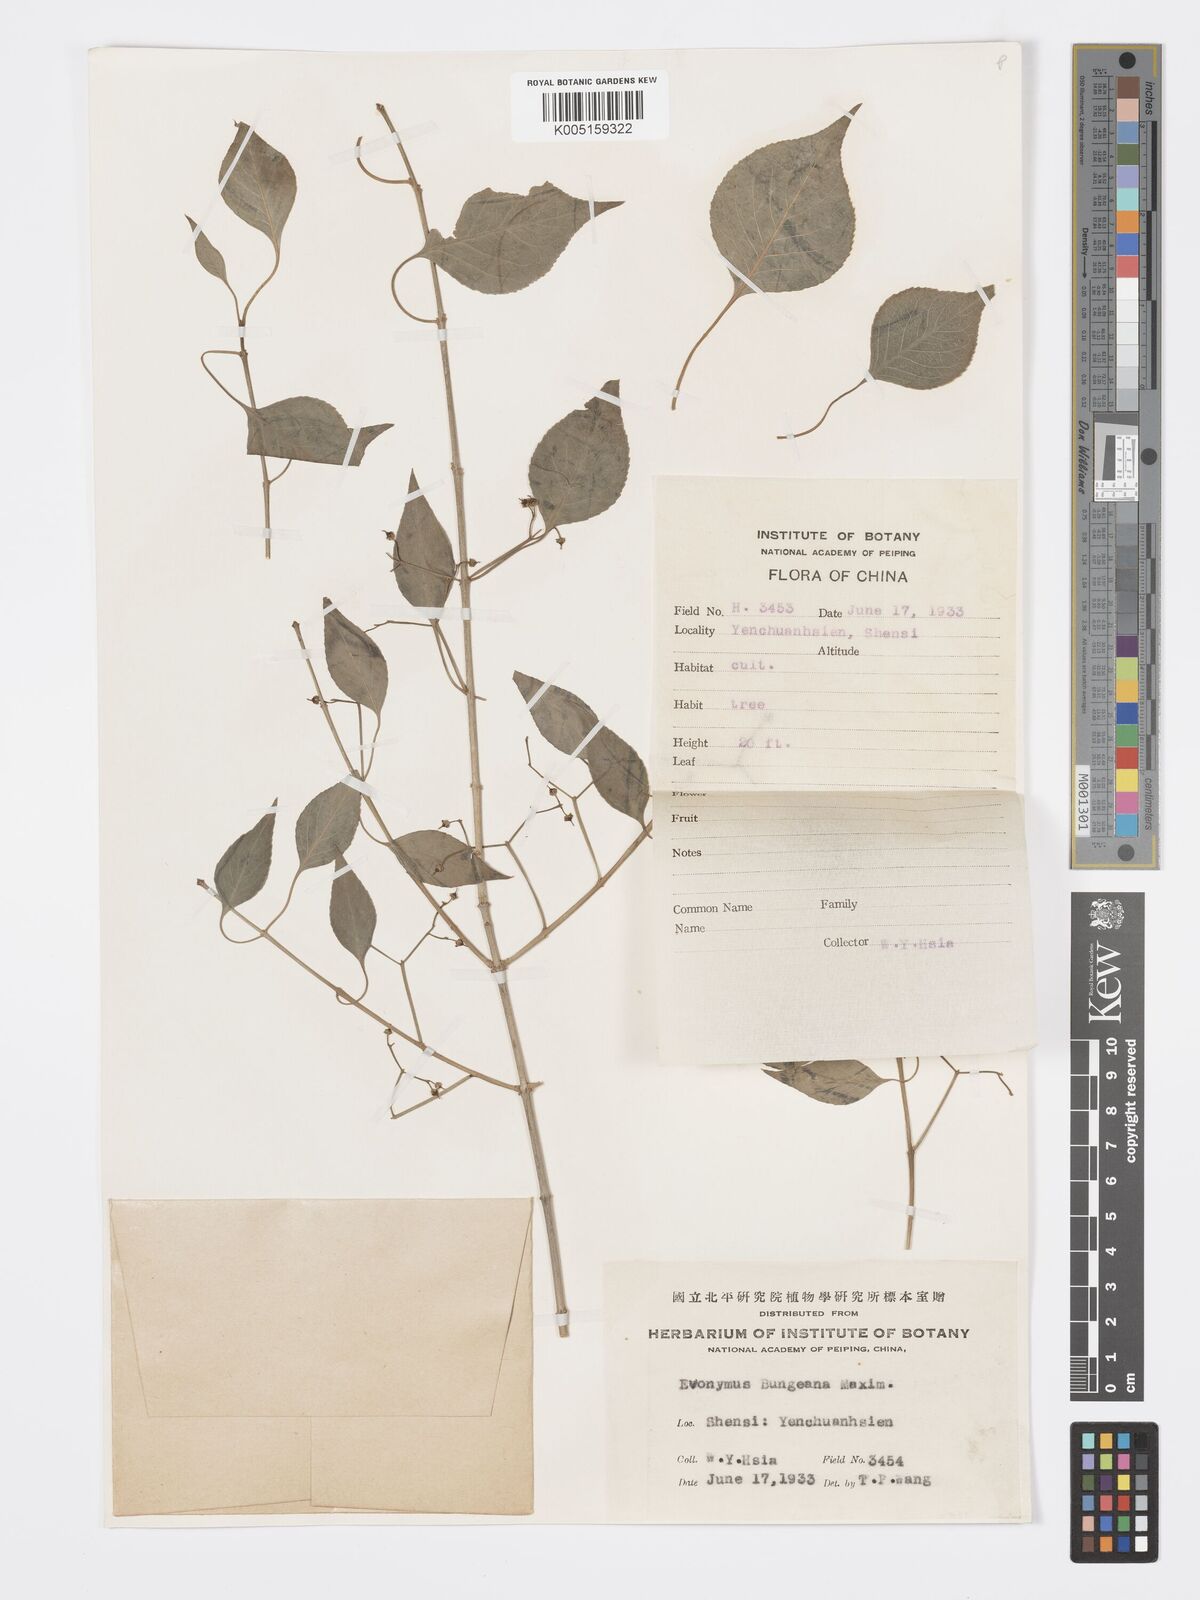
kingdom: Plantae
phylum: Tracheophyta
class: Magnoliopsida
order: Celastrales
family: Celastraceae
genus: Euonymus
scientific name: Euonymus maackii
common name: Hamilton's spindletree
